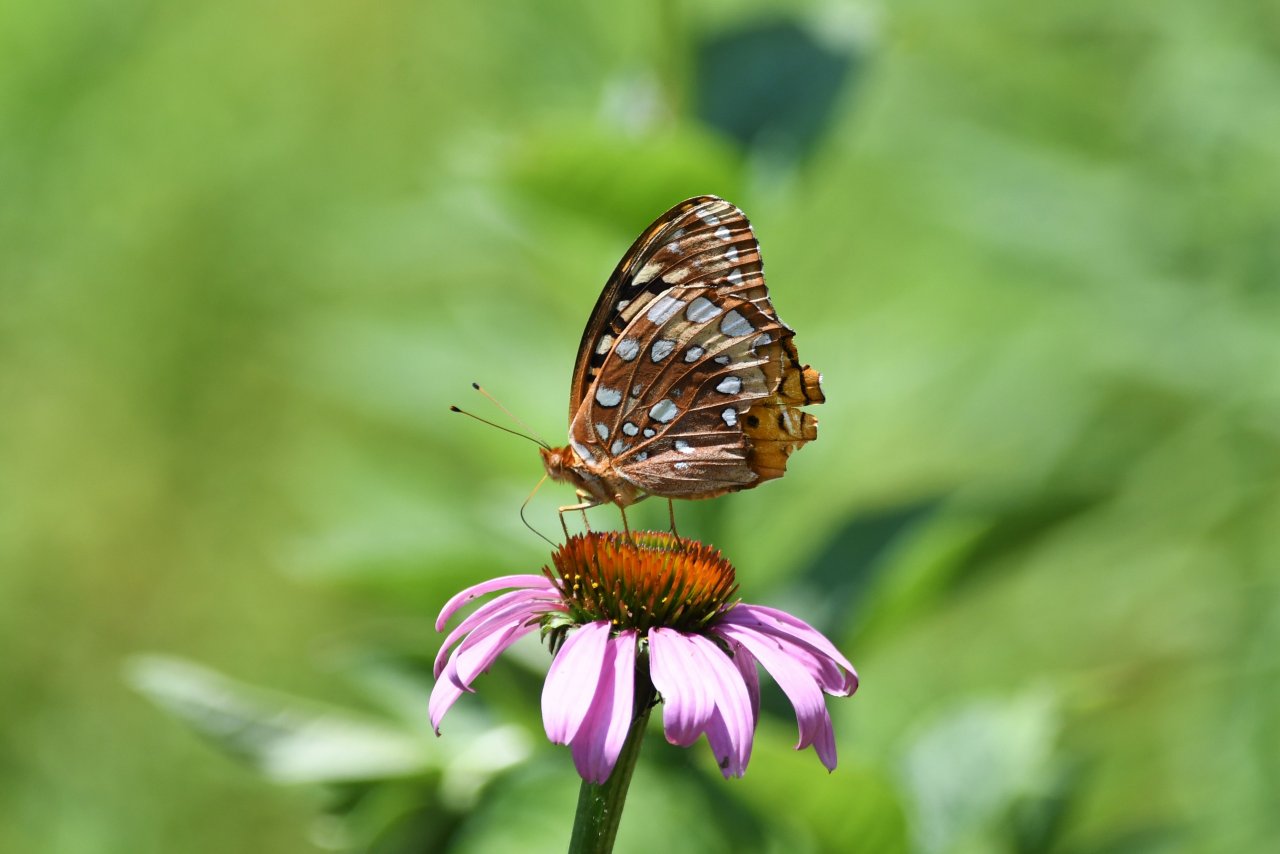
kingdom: Animalia
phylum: Arthropoda
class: Insecta
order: Lepidoptera
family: Nymphalidae
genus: Speyeria
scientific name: Speyeria cybele
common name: Great Spangled Fritillary
